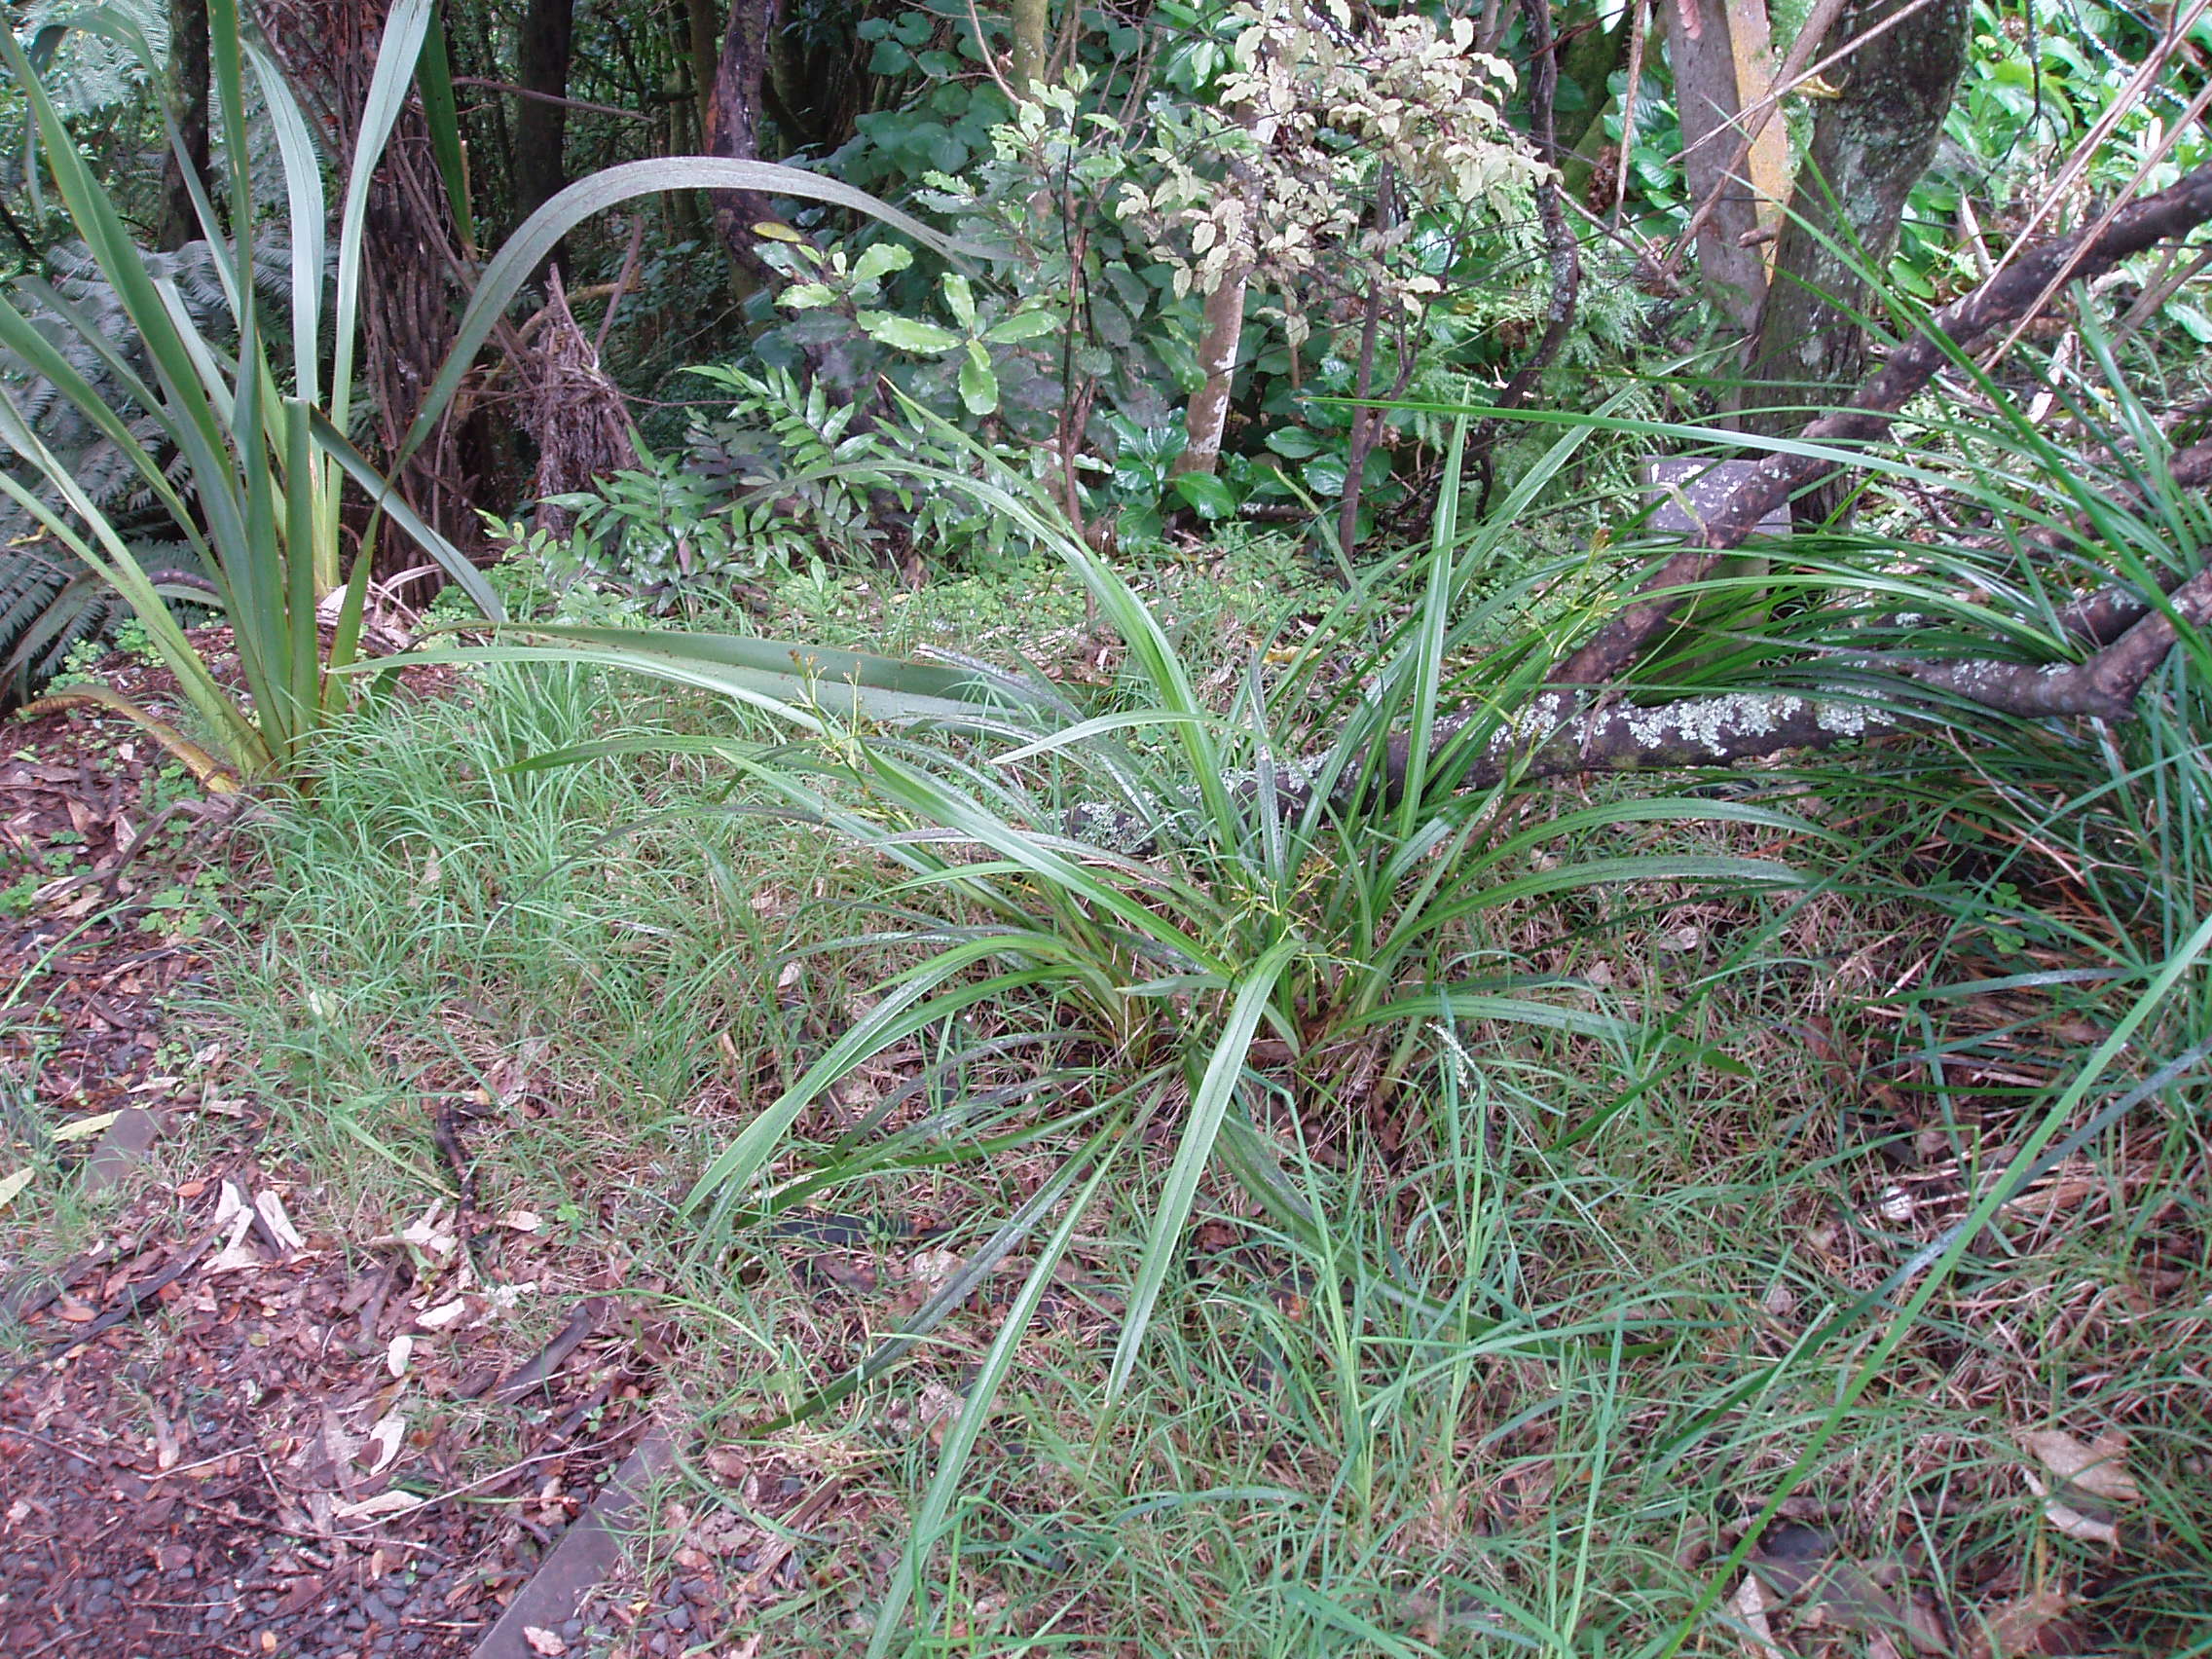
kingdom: Plantae
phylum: Tracheophyta
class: Liliopsida
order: Asparagales
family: Asphodelaceae
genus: Dianella
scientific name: Dianella latissima
